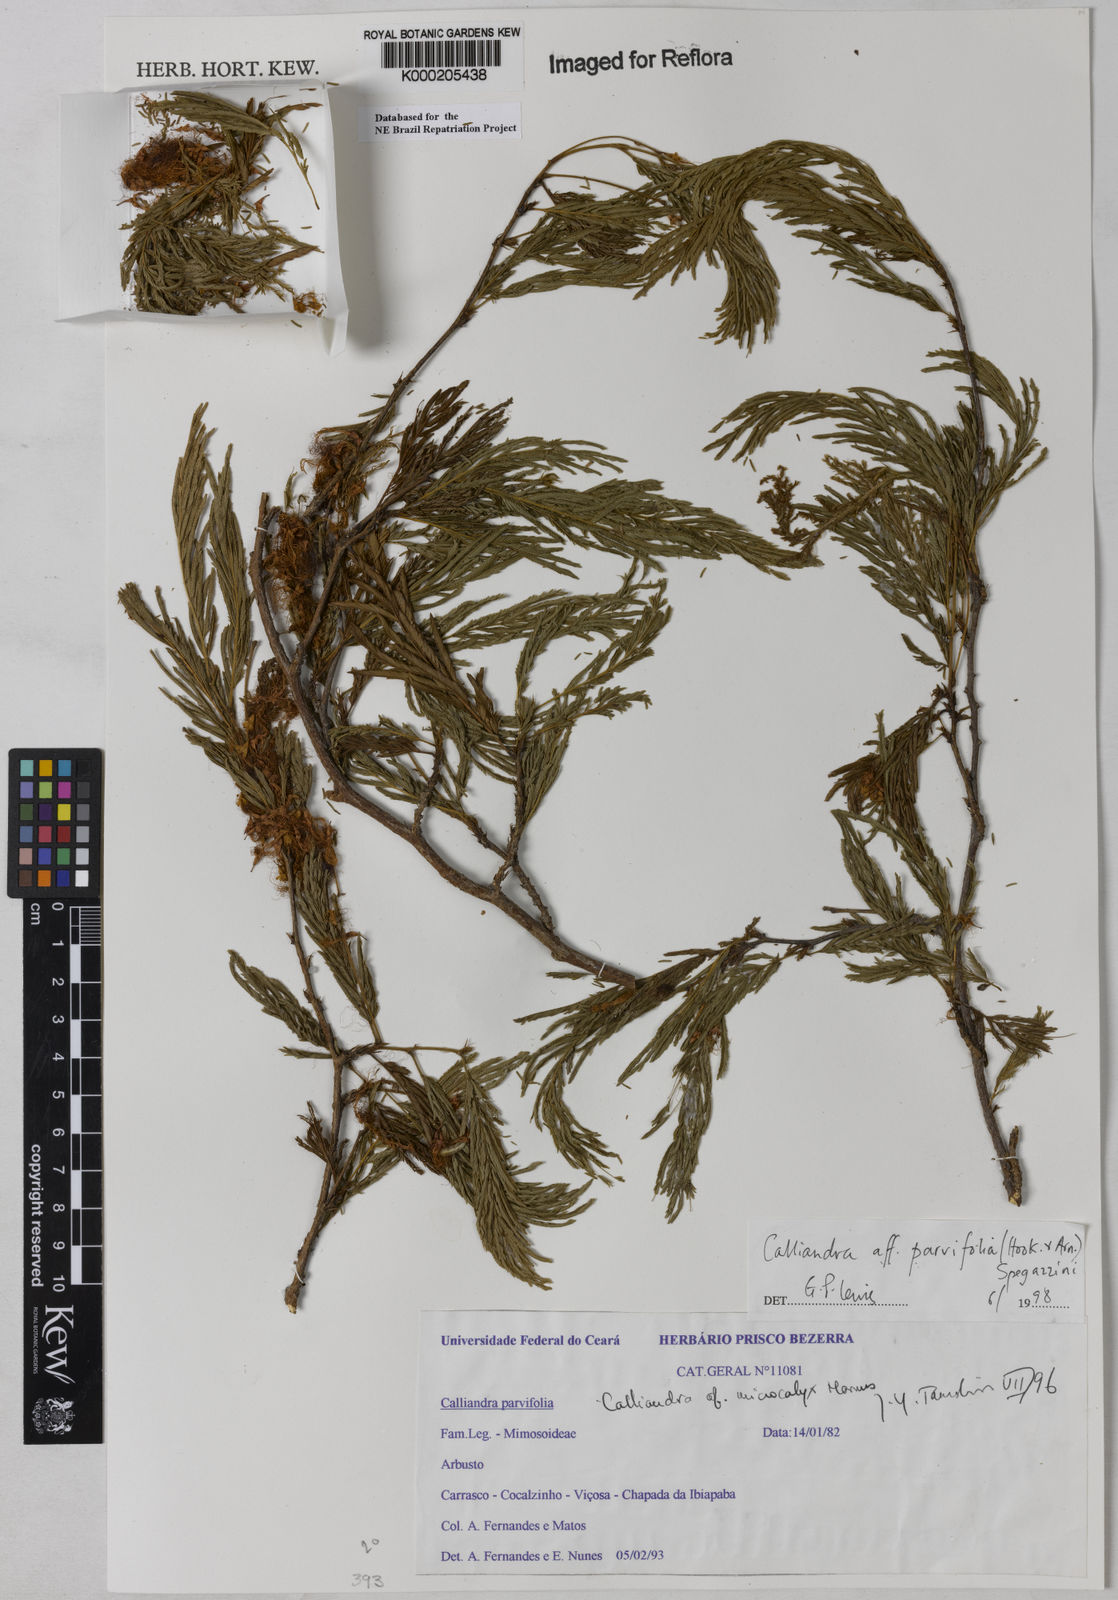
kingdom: Plantae
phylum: Tracheophyta
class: Magnoliopsida
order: Fabales
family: Fabaceae
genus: Calliandra
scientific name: Calliandra parvifolia
